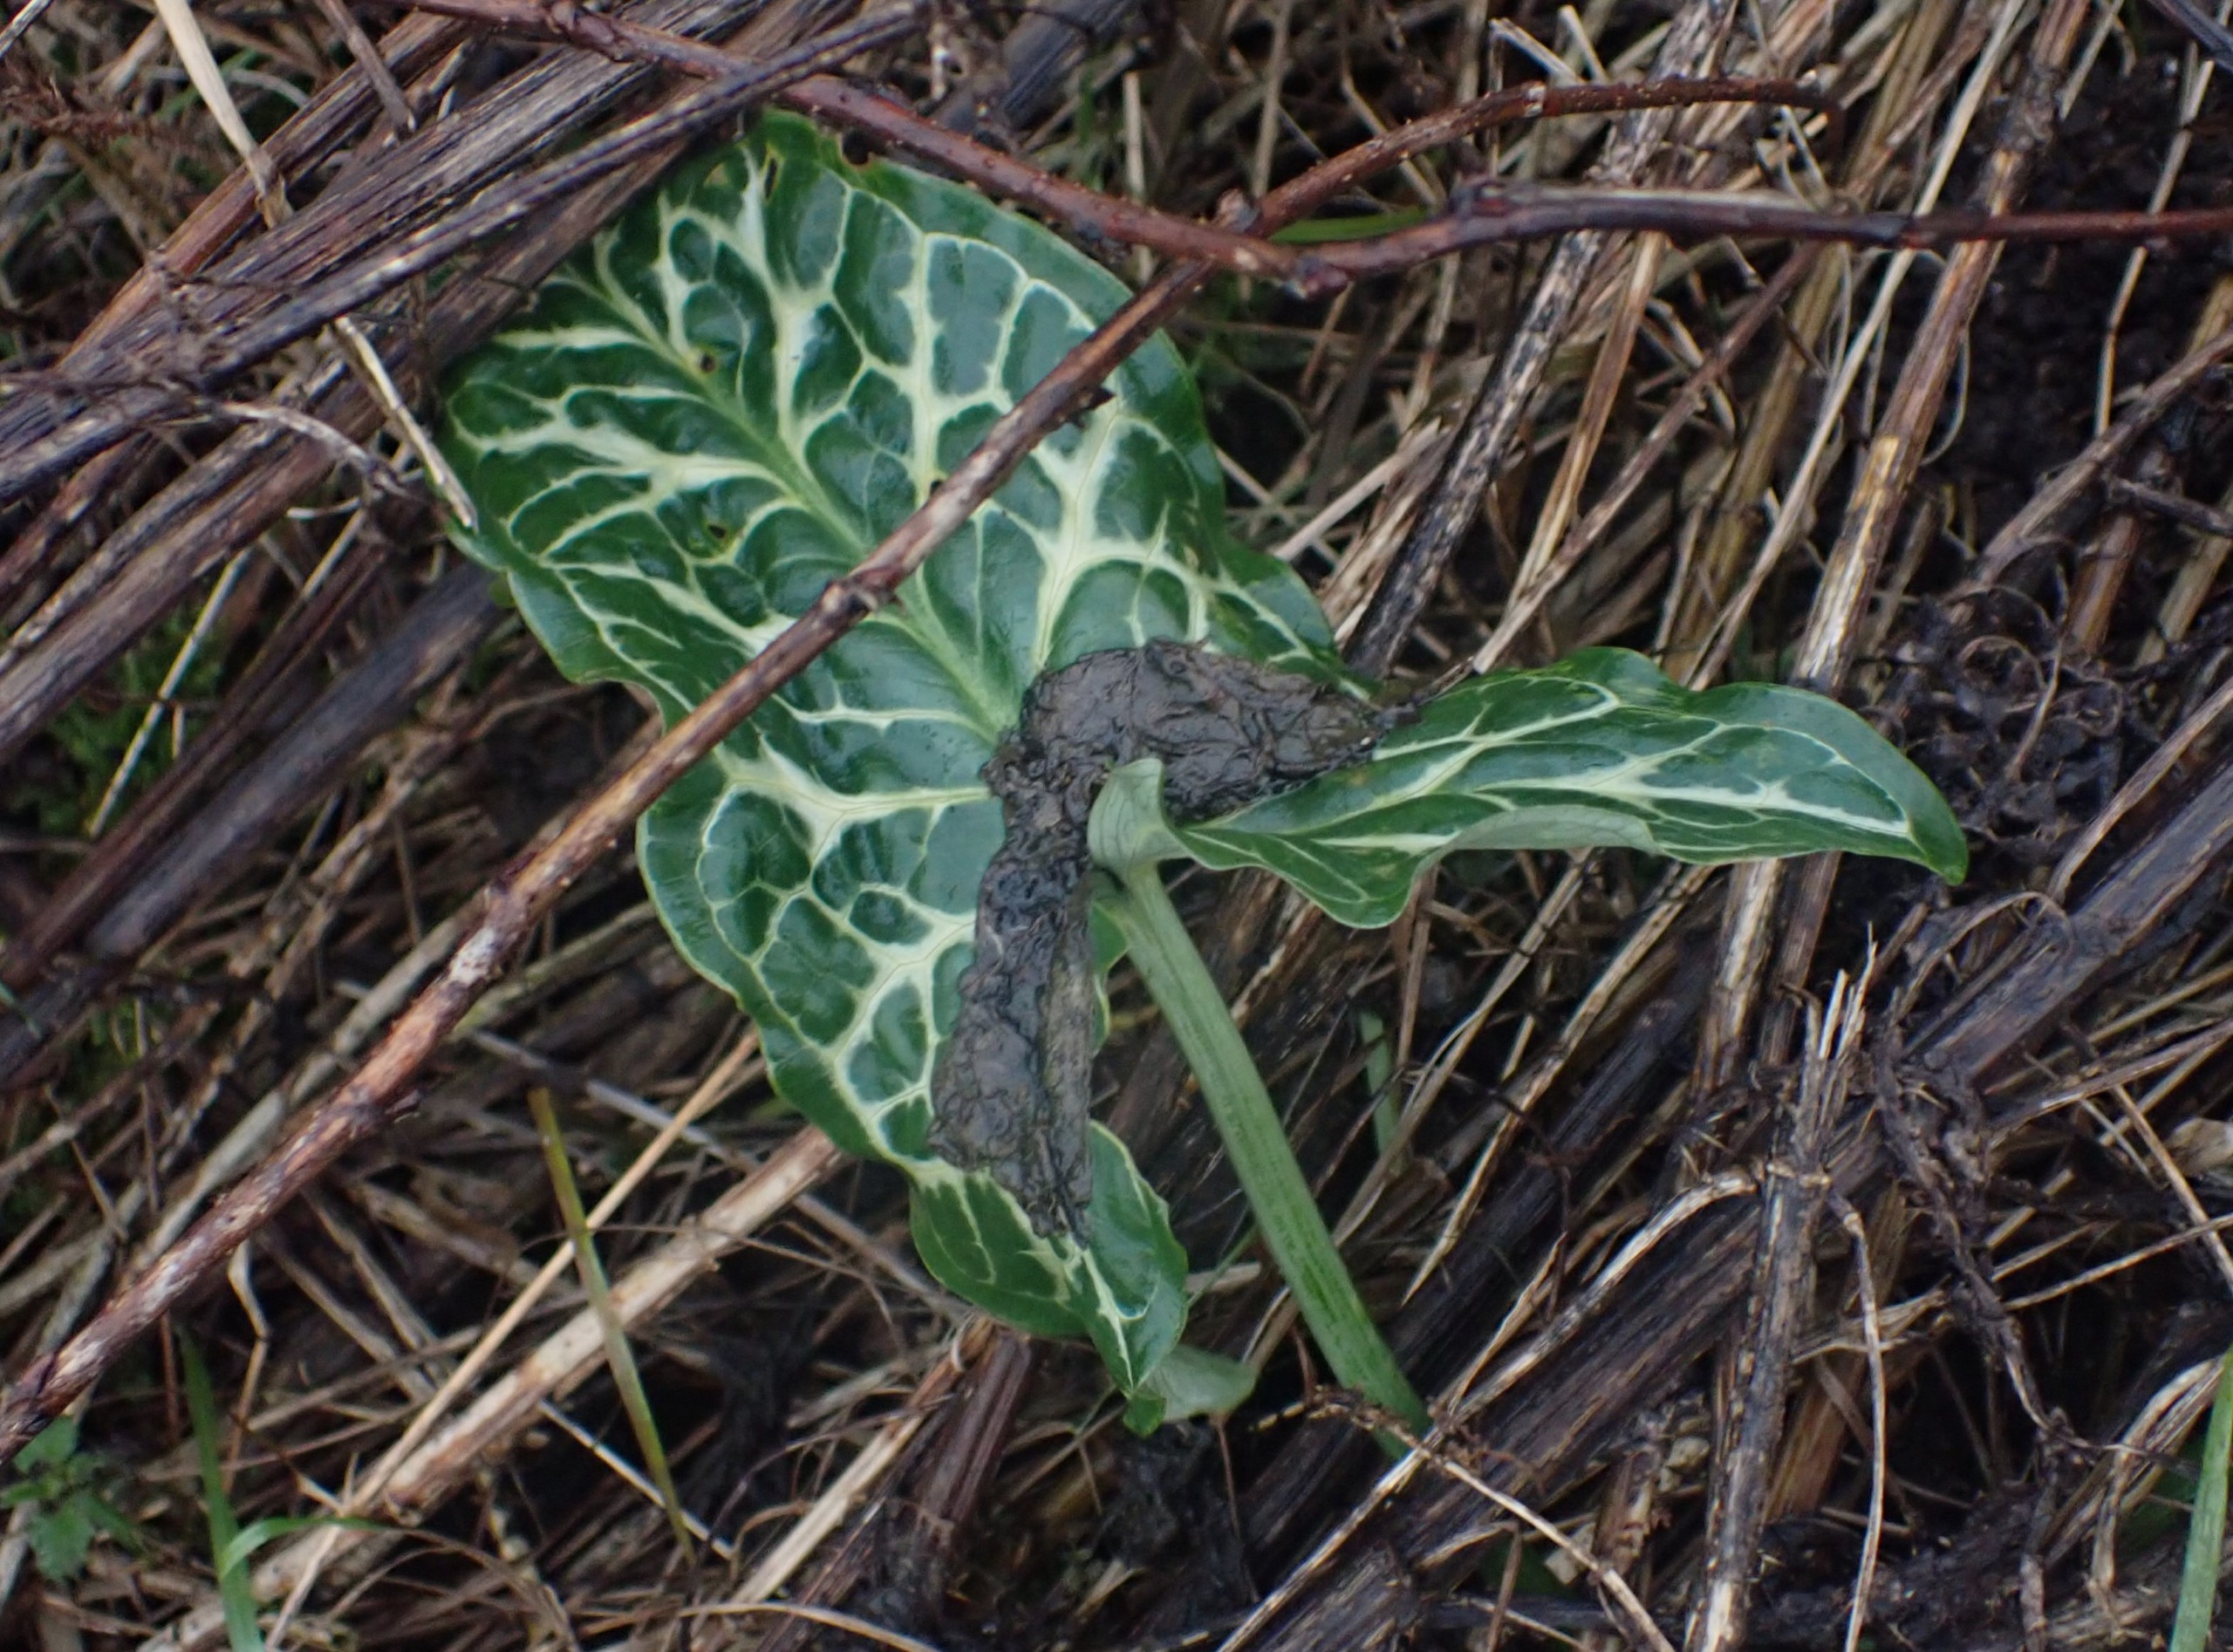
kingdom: Plantae
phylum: Tracheophyta
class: Liliopsida
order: Alismatales
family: Araceae
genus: Arum
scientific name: Arum italicum
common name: Italiensk arum
